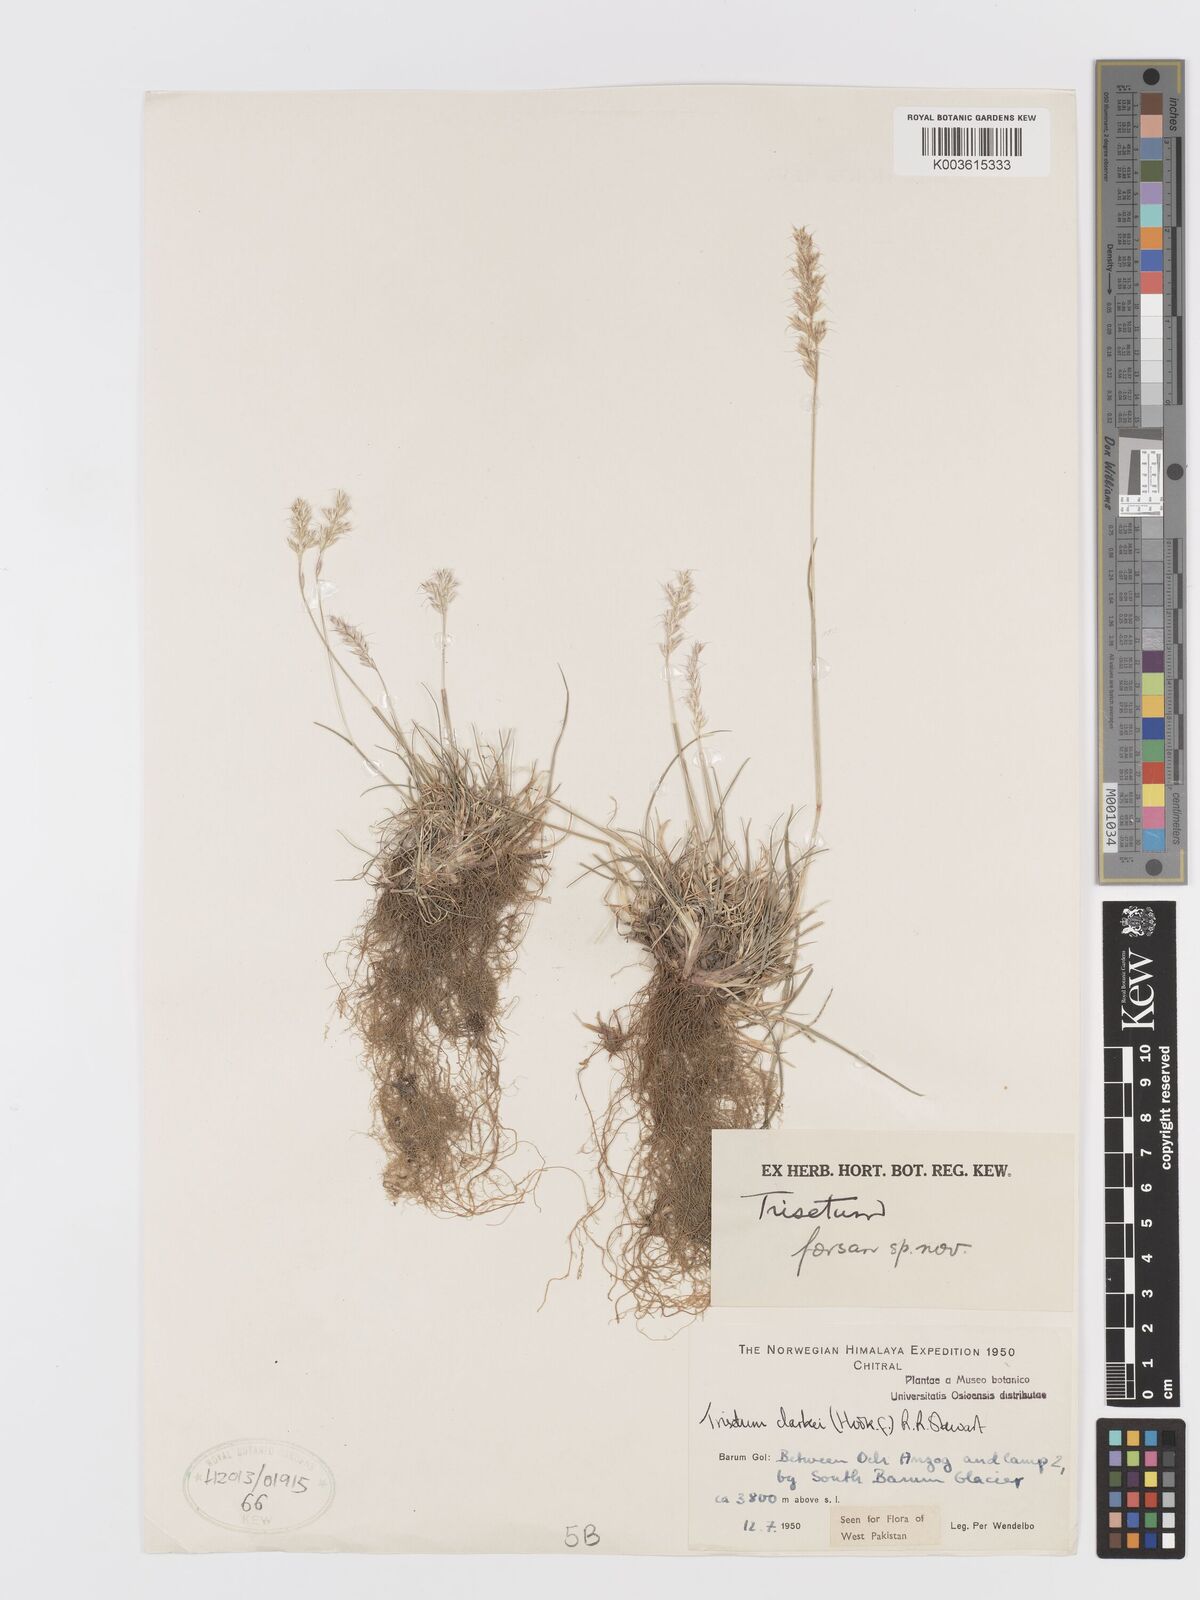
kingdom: Plantae
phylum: Tracheophyta
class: Liliopsida
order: Poales
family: Poaceae
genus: Trisetum
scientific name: Trisetum clarkei
